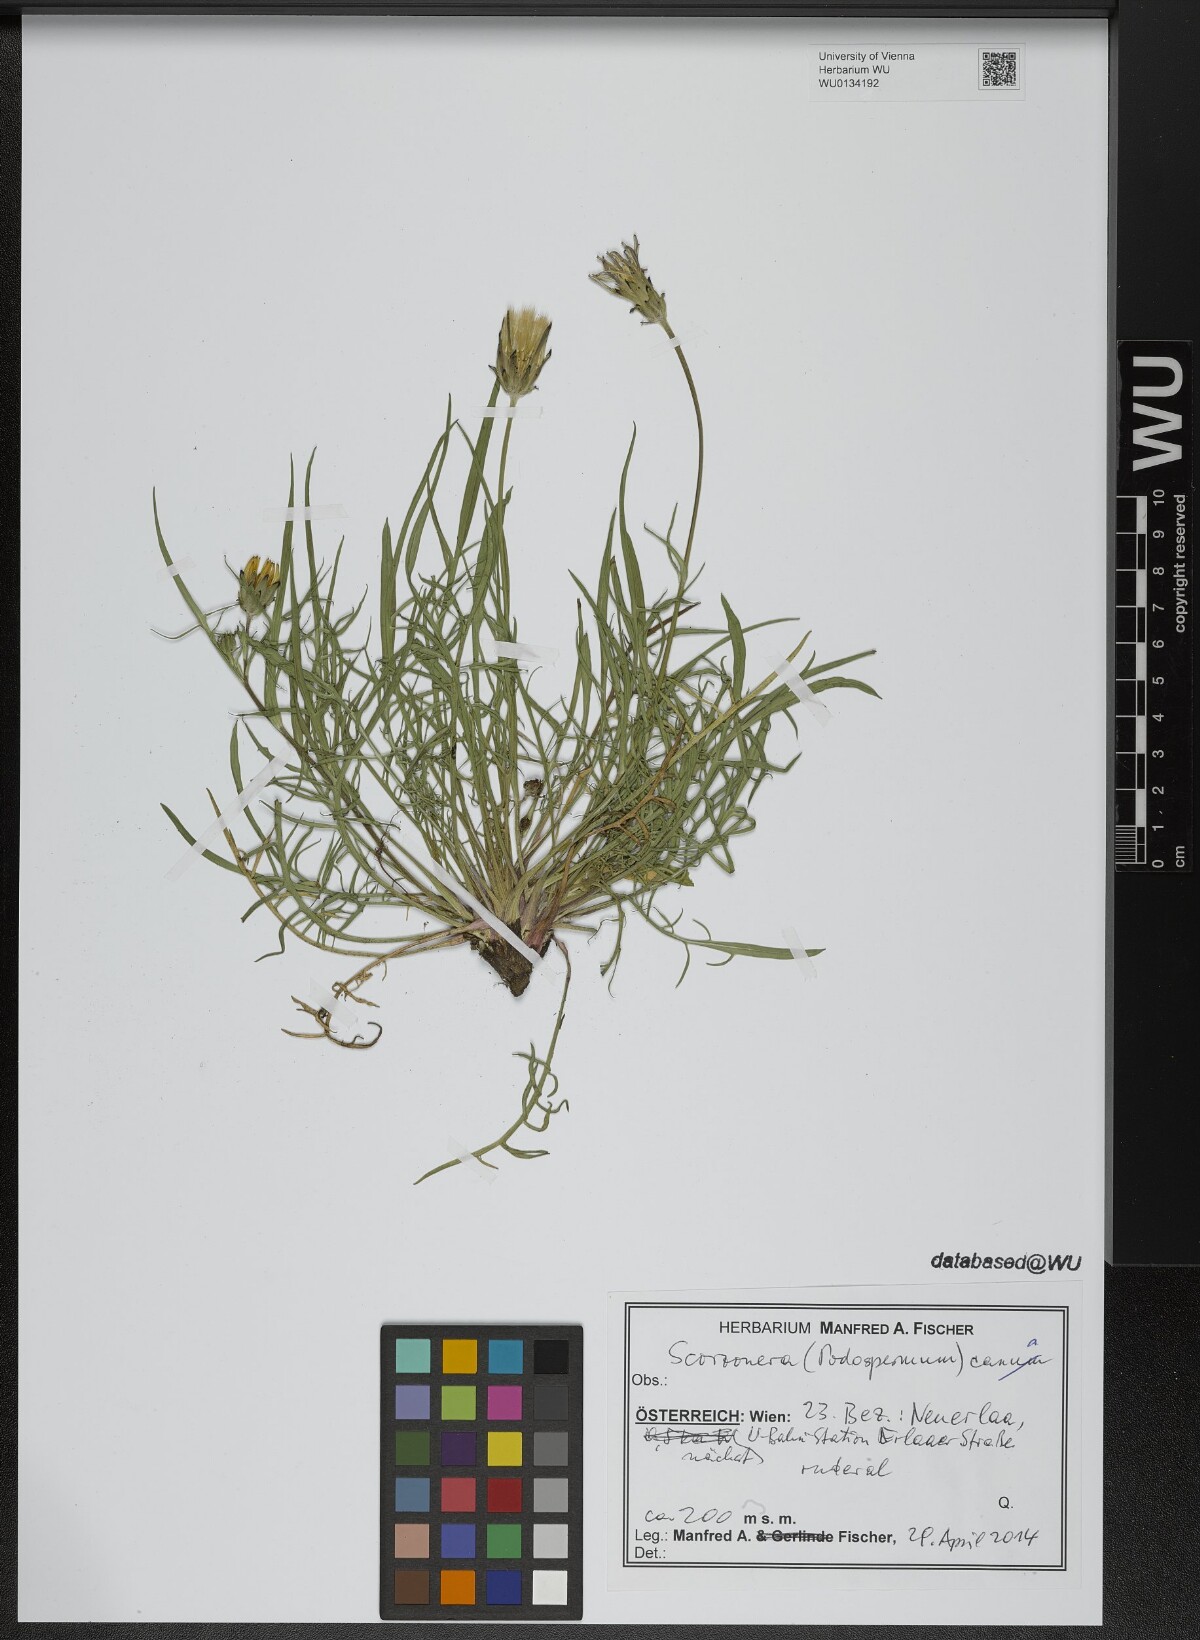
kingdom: Plantae
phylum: Tracheophyta
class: Magnoliopsida
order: Asterales
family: Asteraceae
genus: Scorzonera
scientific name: Scorzonera cana
